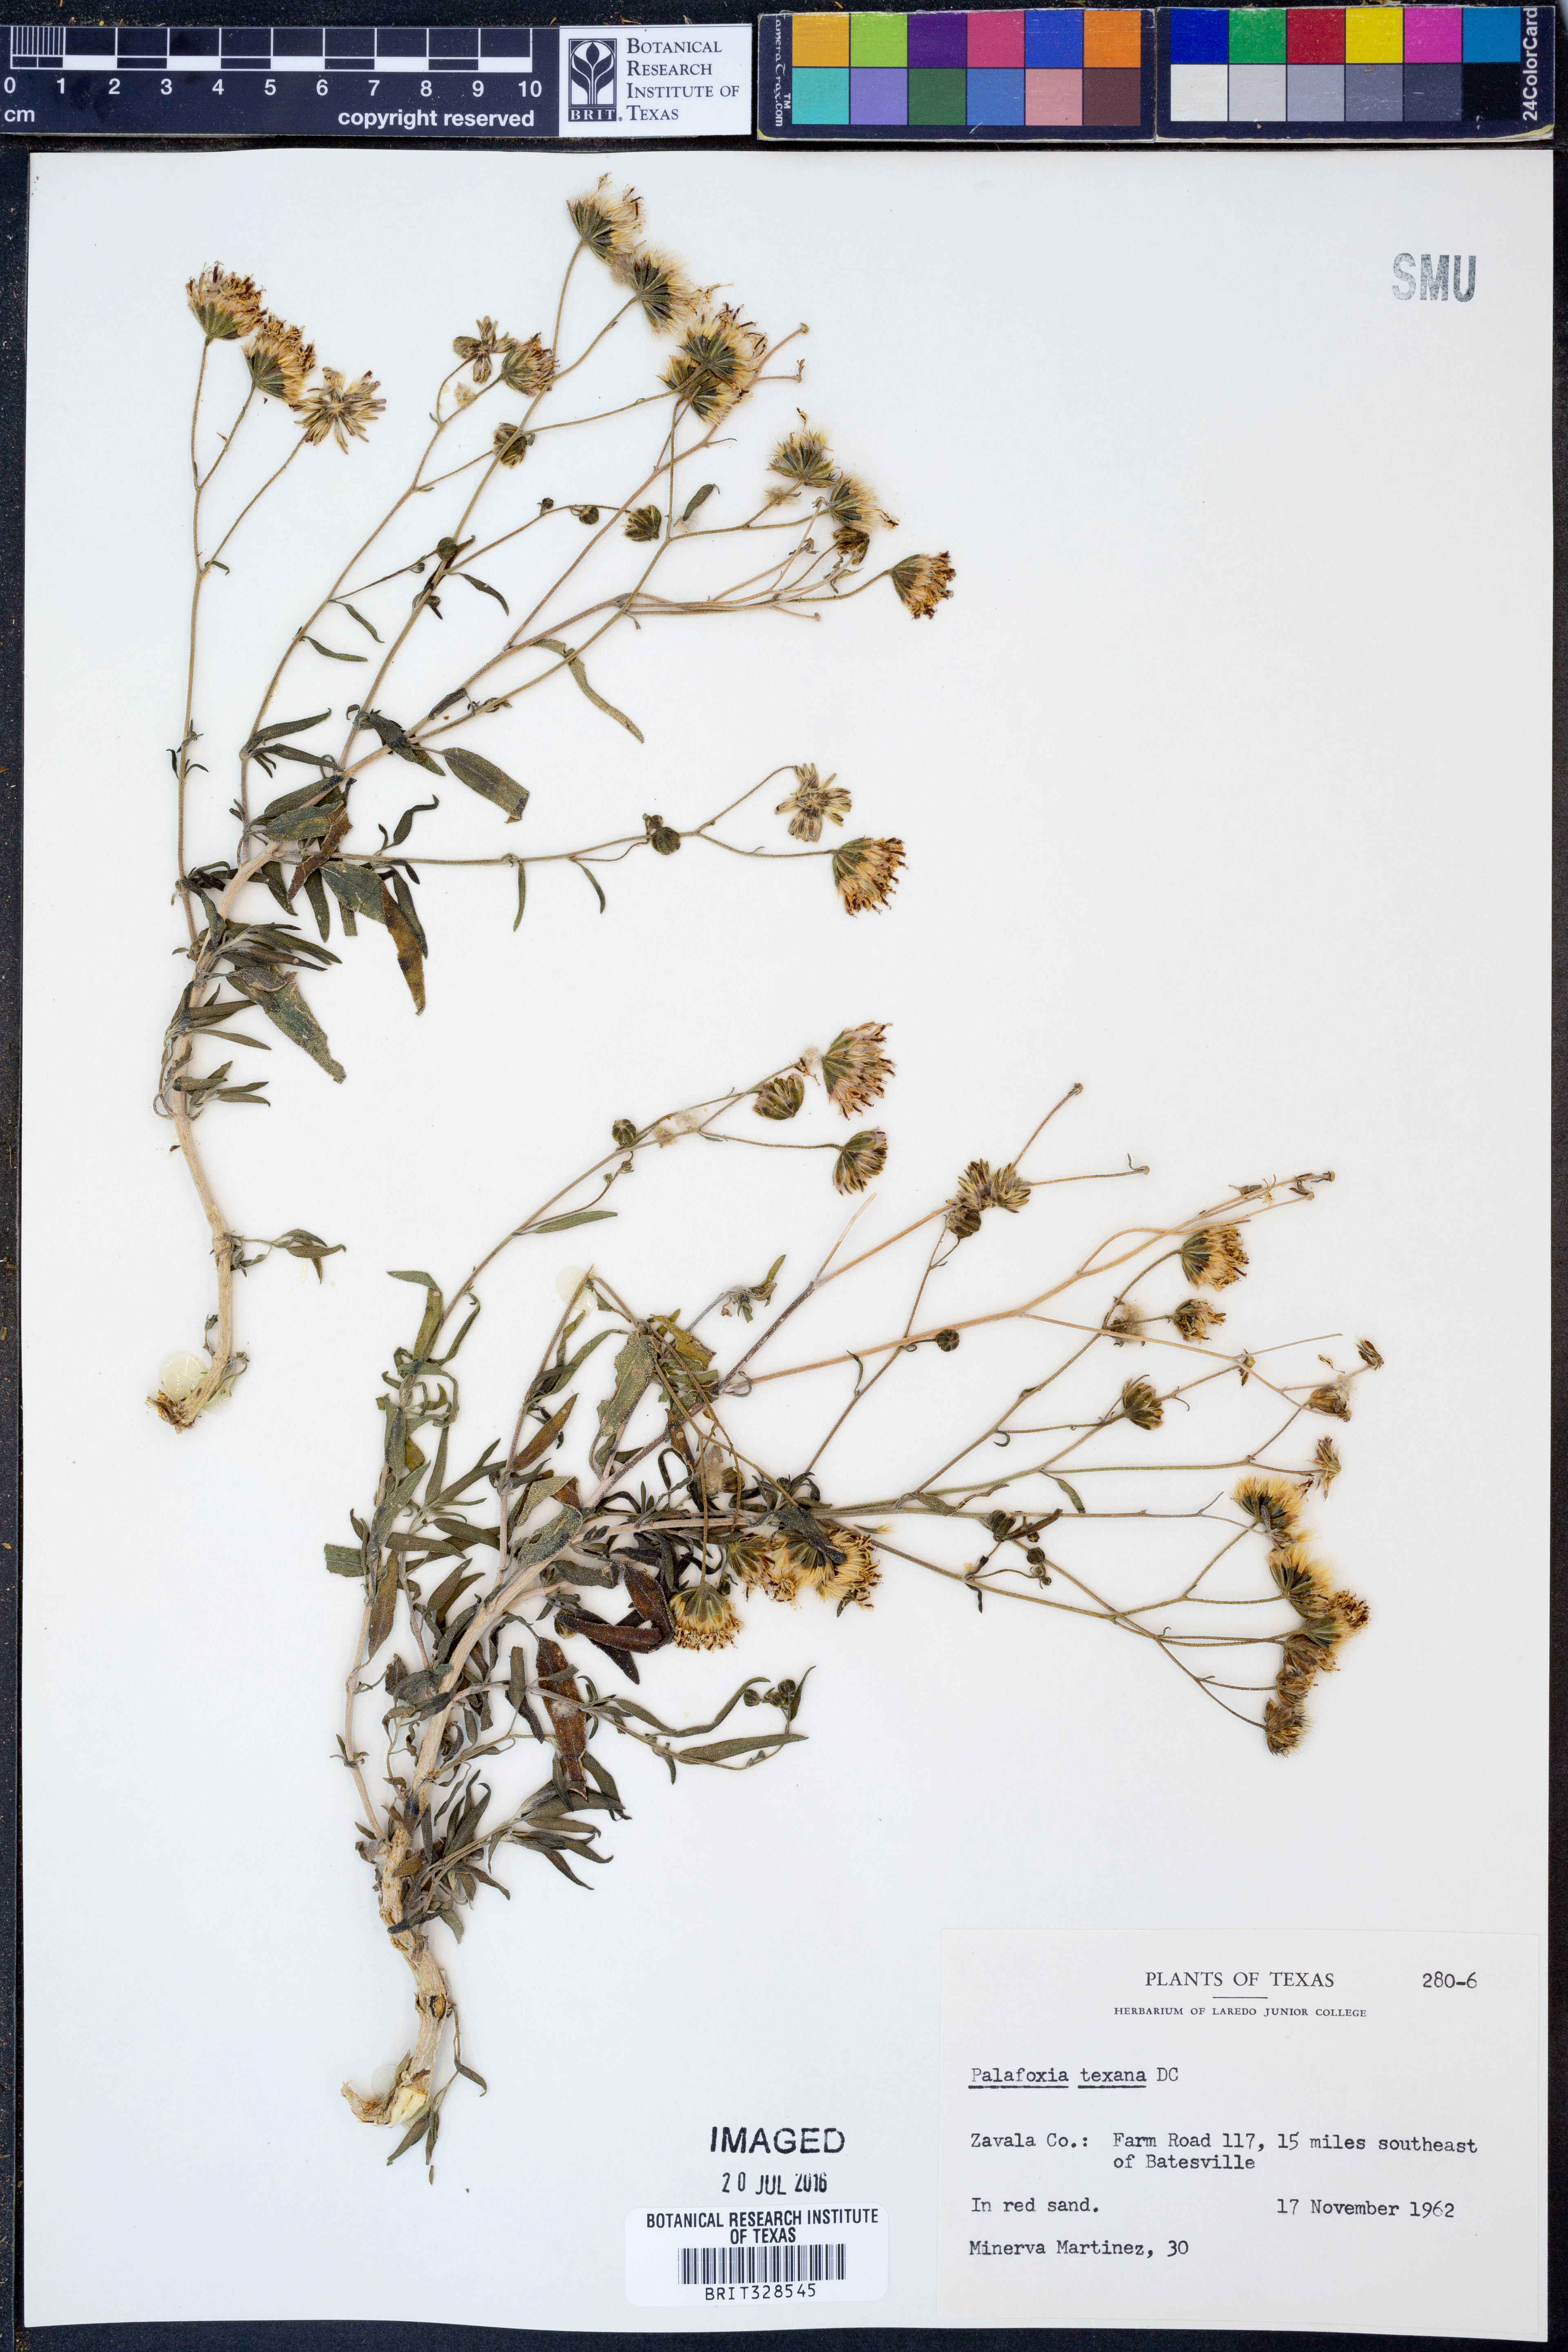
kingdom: Plantae
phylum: Tracheophyta
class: Magnoliopsida
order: Asterales
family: Asteraceae
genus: Palafoxia
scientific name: Palafoxia texana
